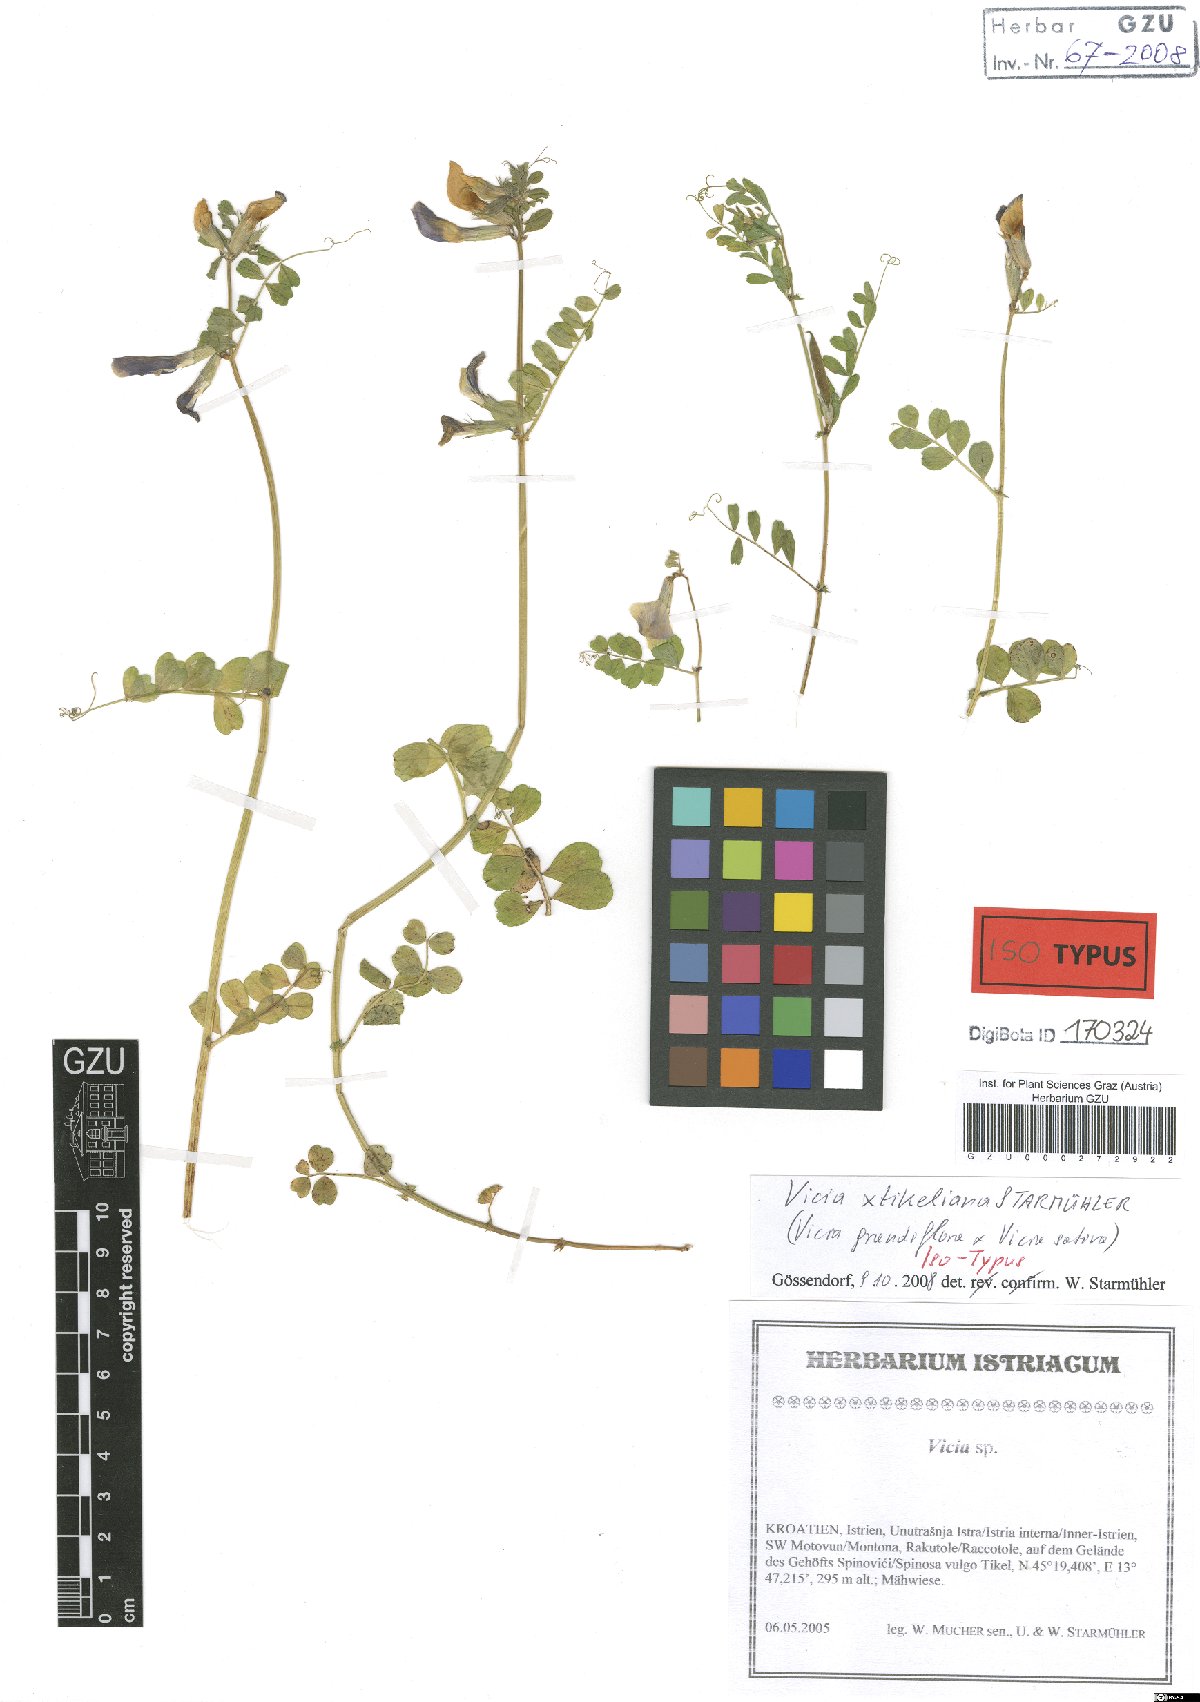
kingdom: Plantae
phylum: Tracheophyta
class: Magnoliopsida
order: Fabales
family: Fabaceae
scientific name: Fabaceae
